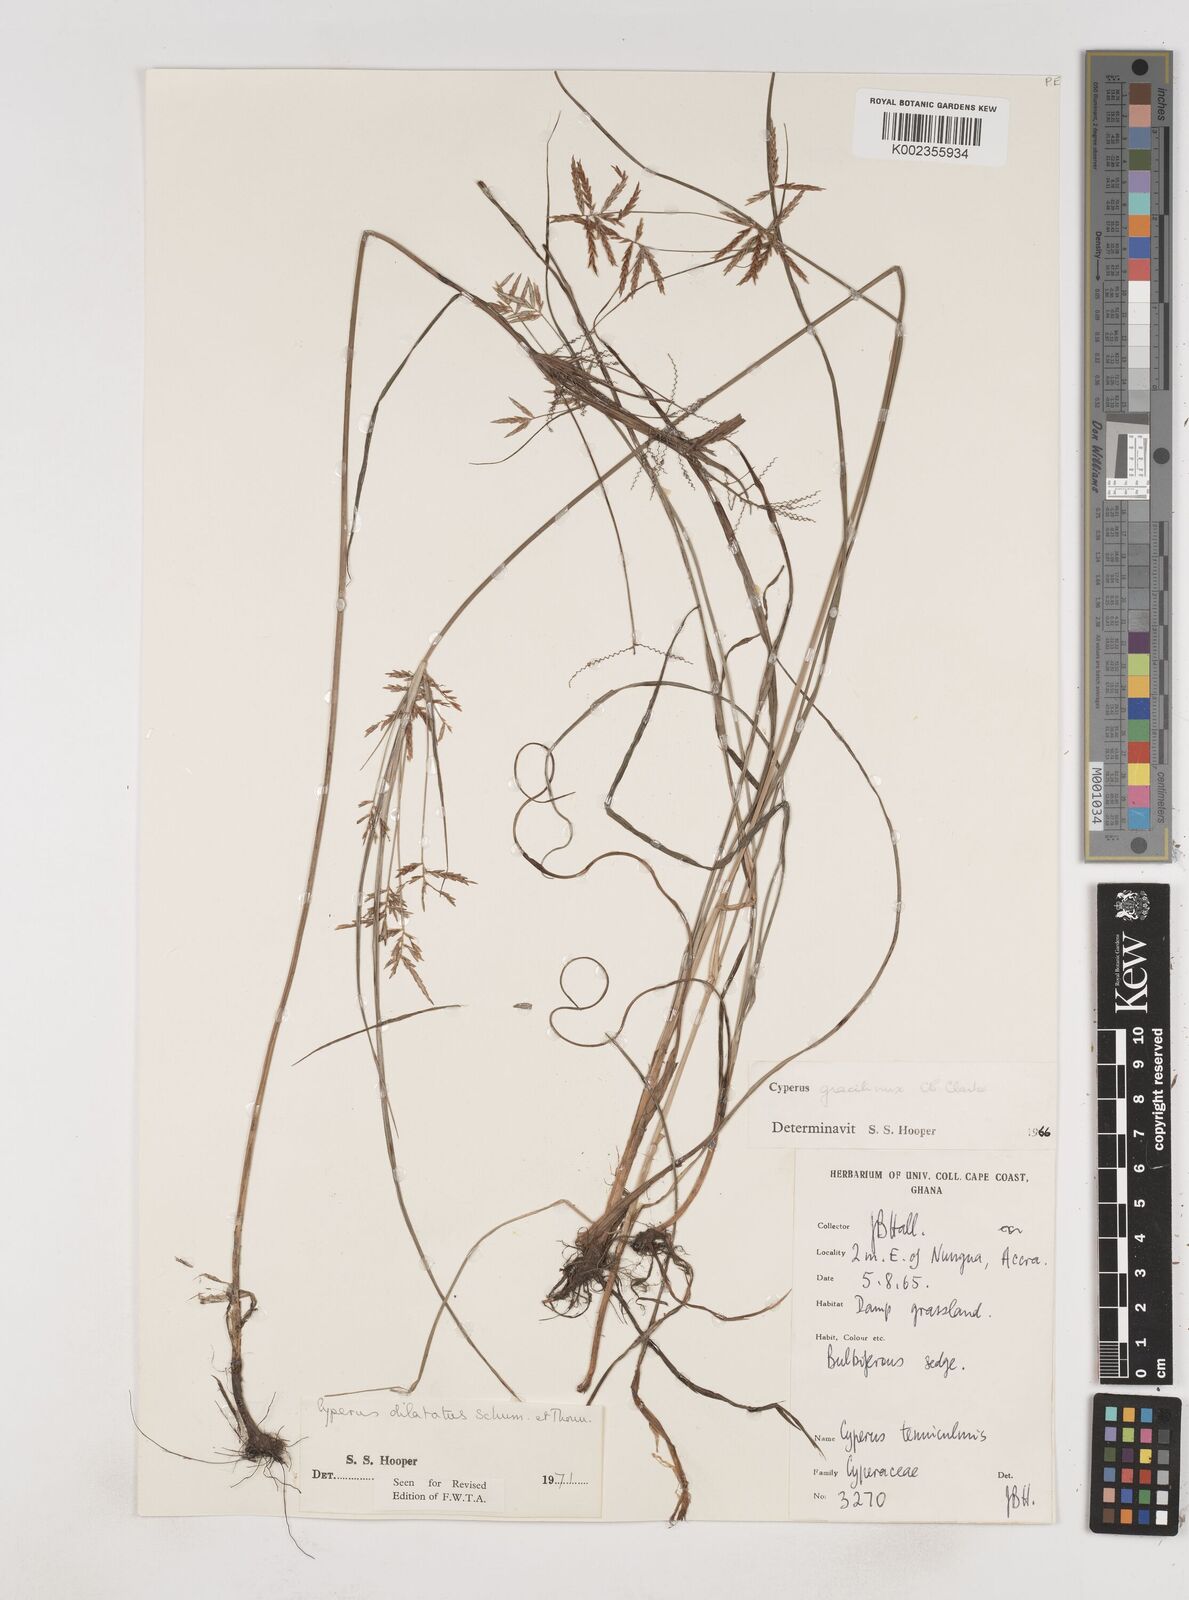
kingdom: Plantae
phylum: Tracheophyta
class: Liliopsida
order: Poales
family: Cyperaceae
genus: Cyperus
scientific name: Cyperus dilatatus
